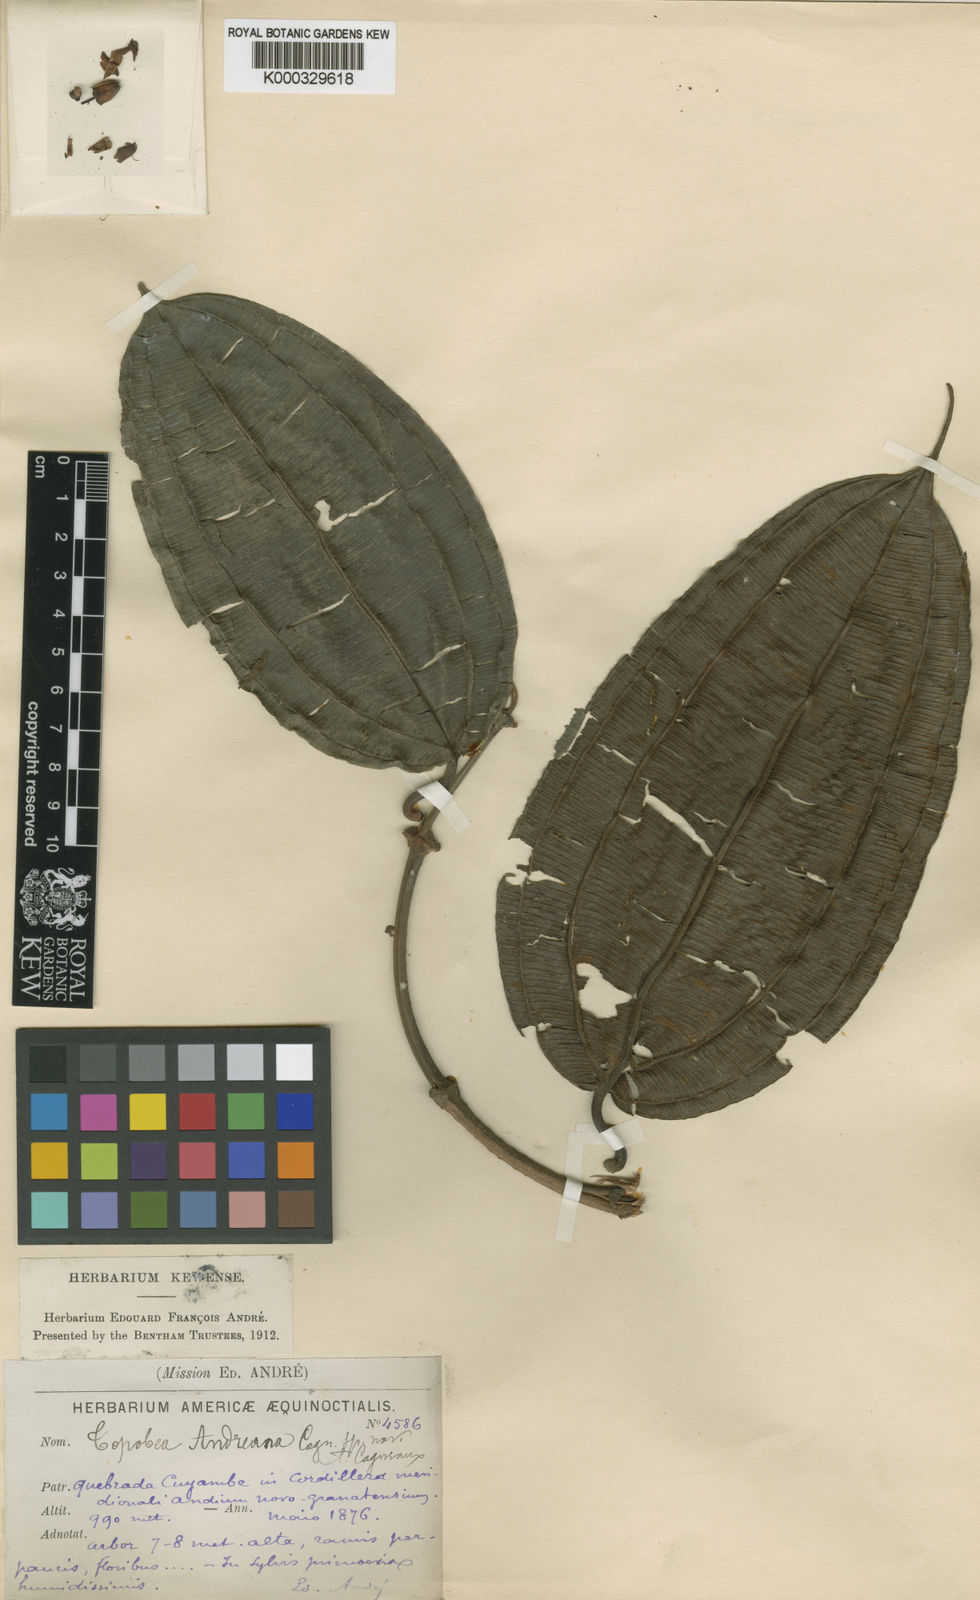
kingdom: Plantae
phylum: Tracheophyta
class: Magnoliopsida
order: Myrtales
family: Melastomataceae
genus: Blakea
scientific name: Blakea pectinata
